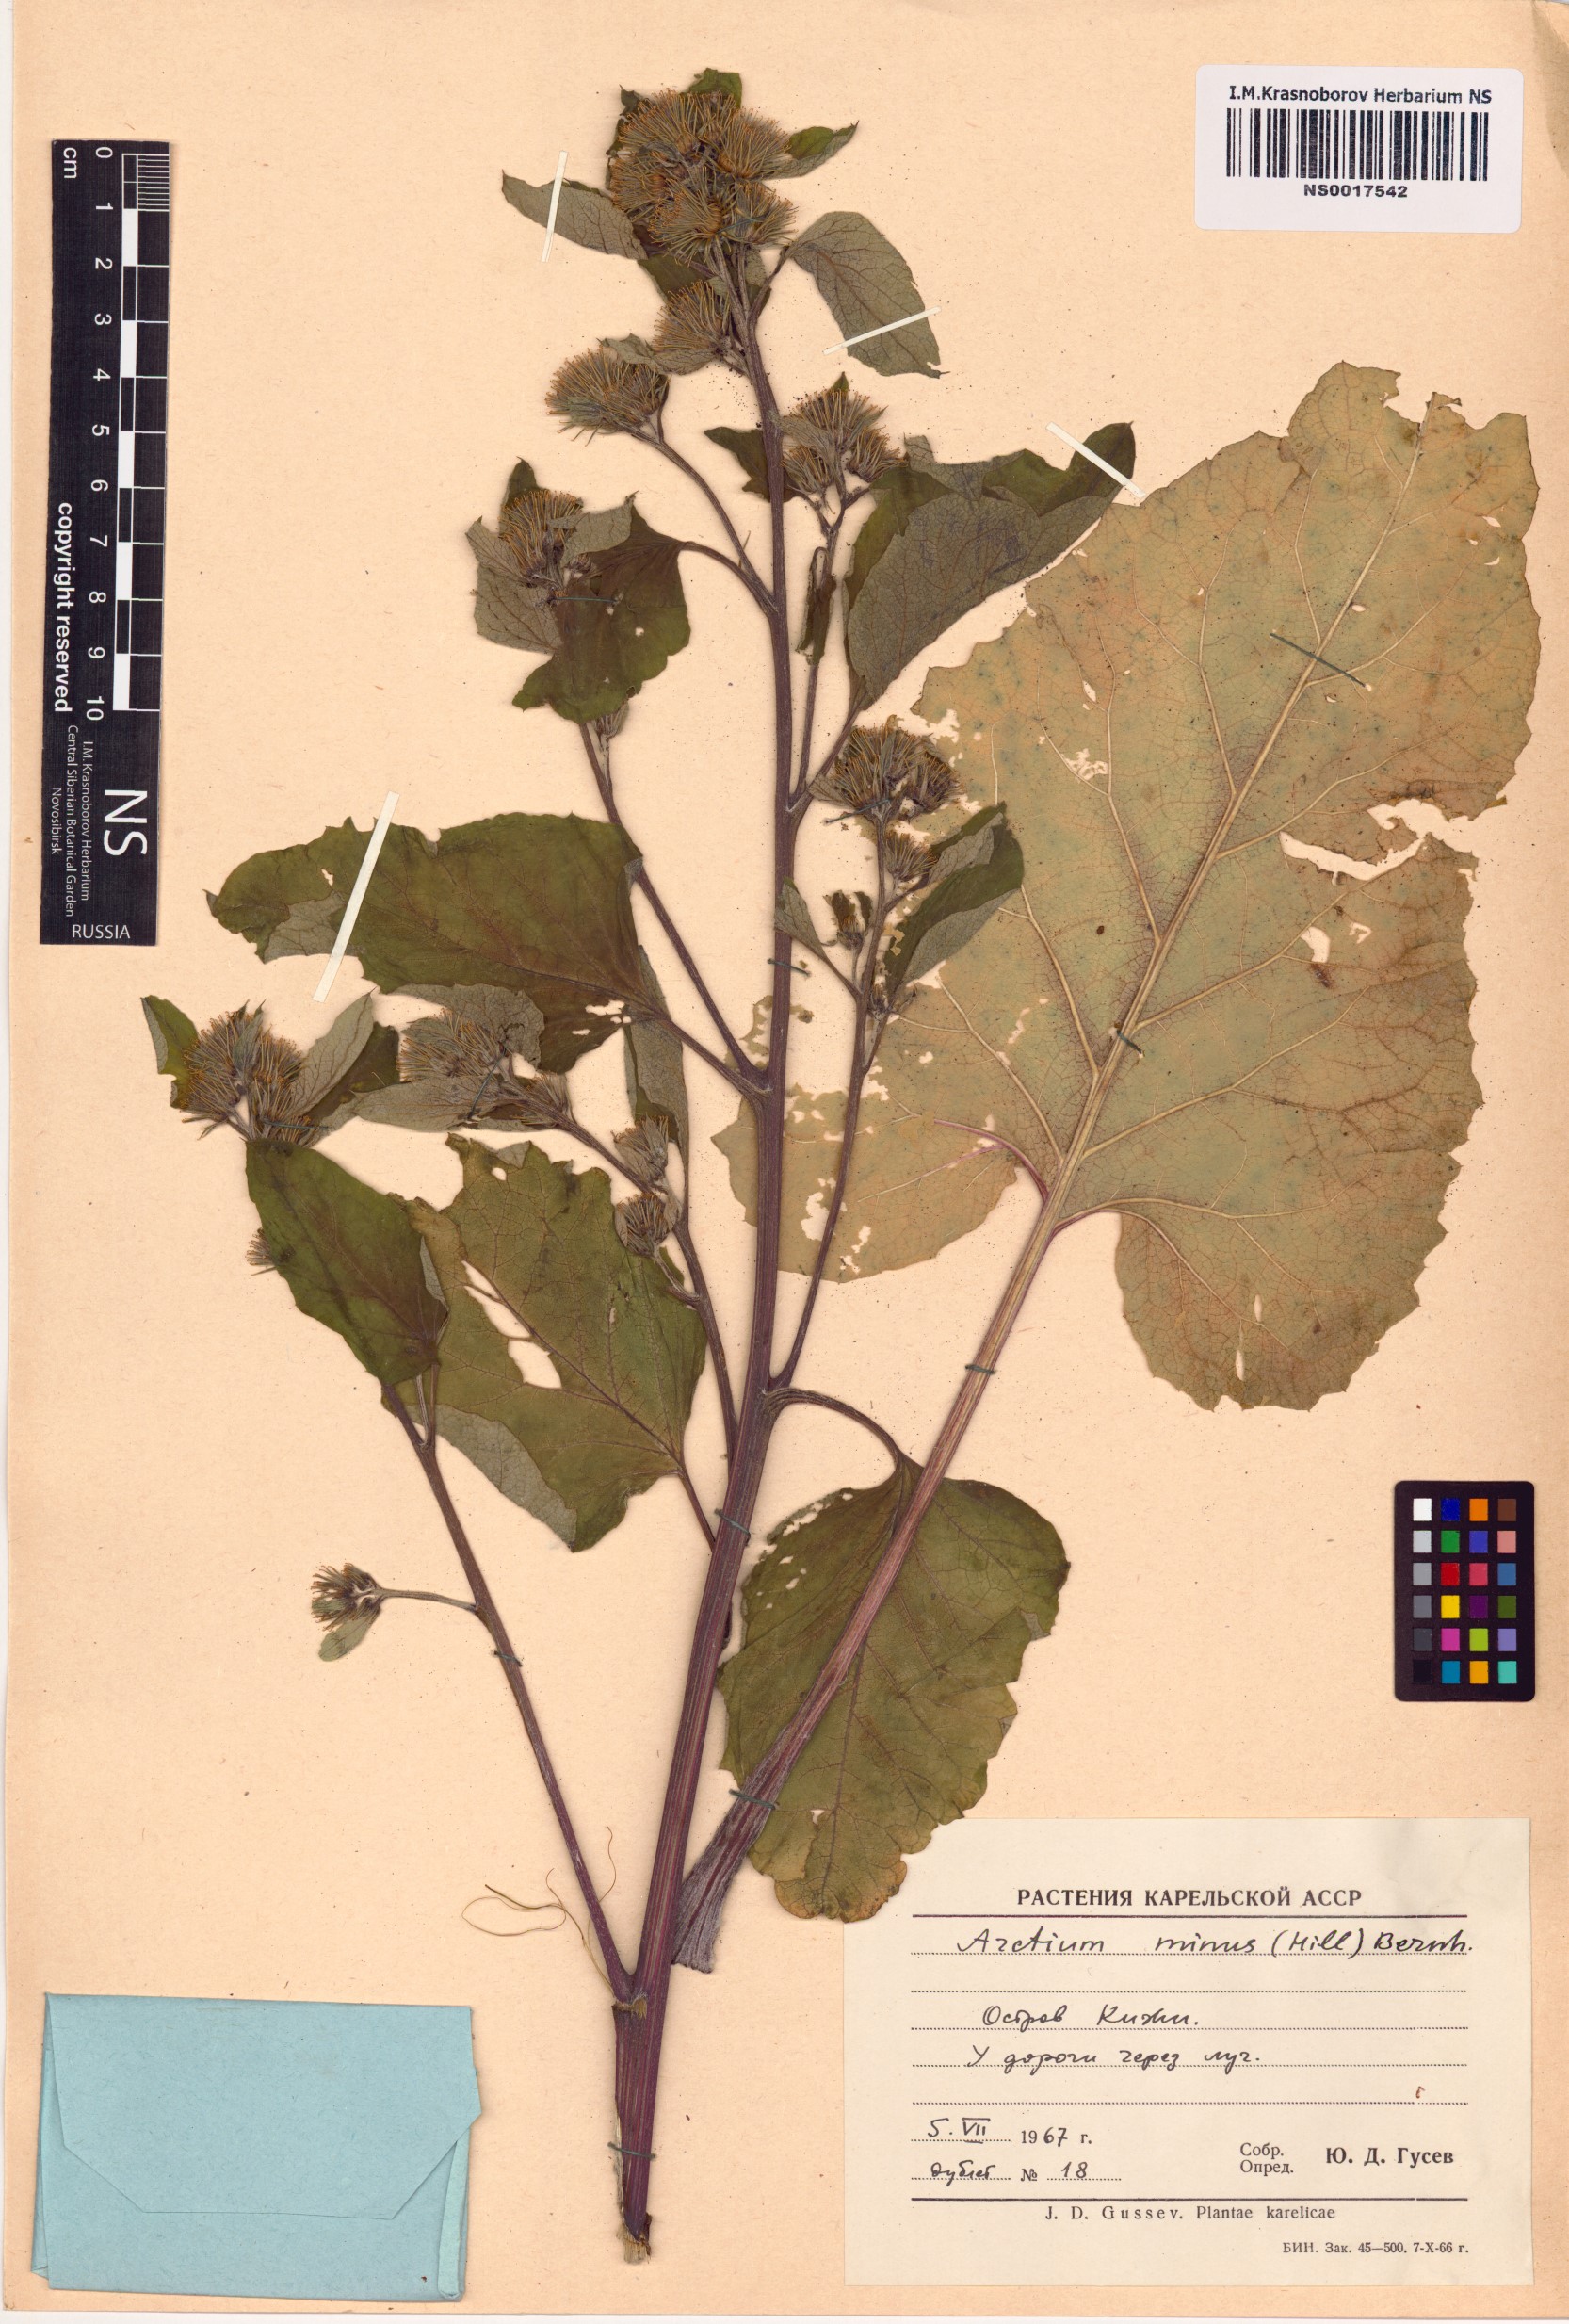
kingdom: Plantae
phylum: Tracheophyta
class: Magnoliopsida
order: Asterales
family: Asteraceae
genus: Arctium
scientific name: Arctium minus
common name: Lesser burdock
